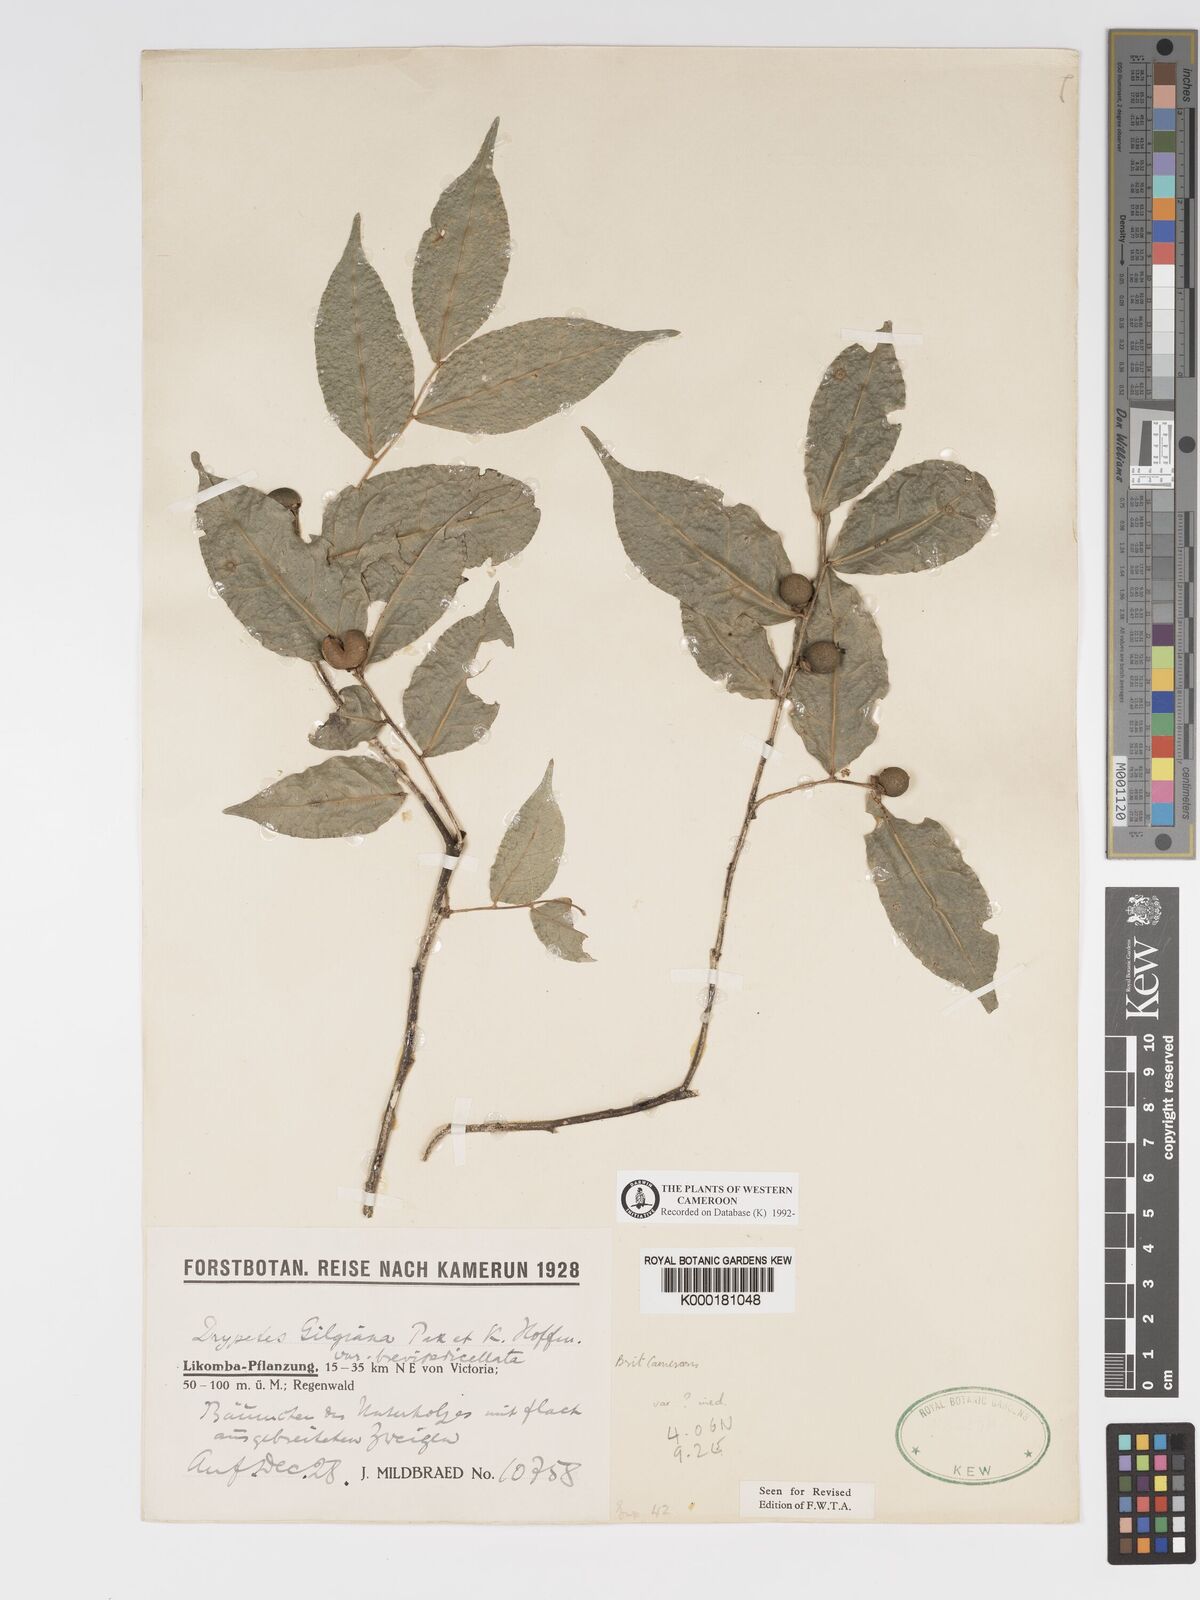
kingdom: Plantae
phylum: Tracheophyta
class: Magnoliopsida
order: Malpighiales
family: Putranjivaceae
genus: Drypetes
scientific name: Drypetes gilgiana
